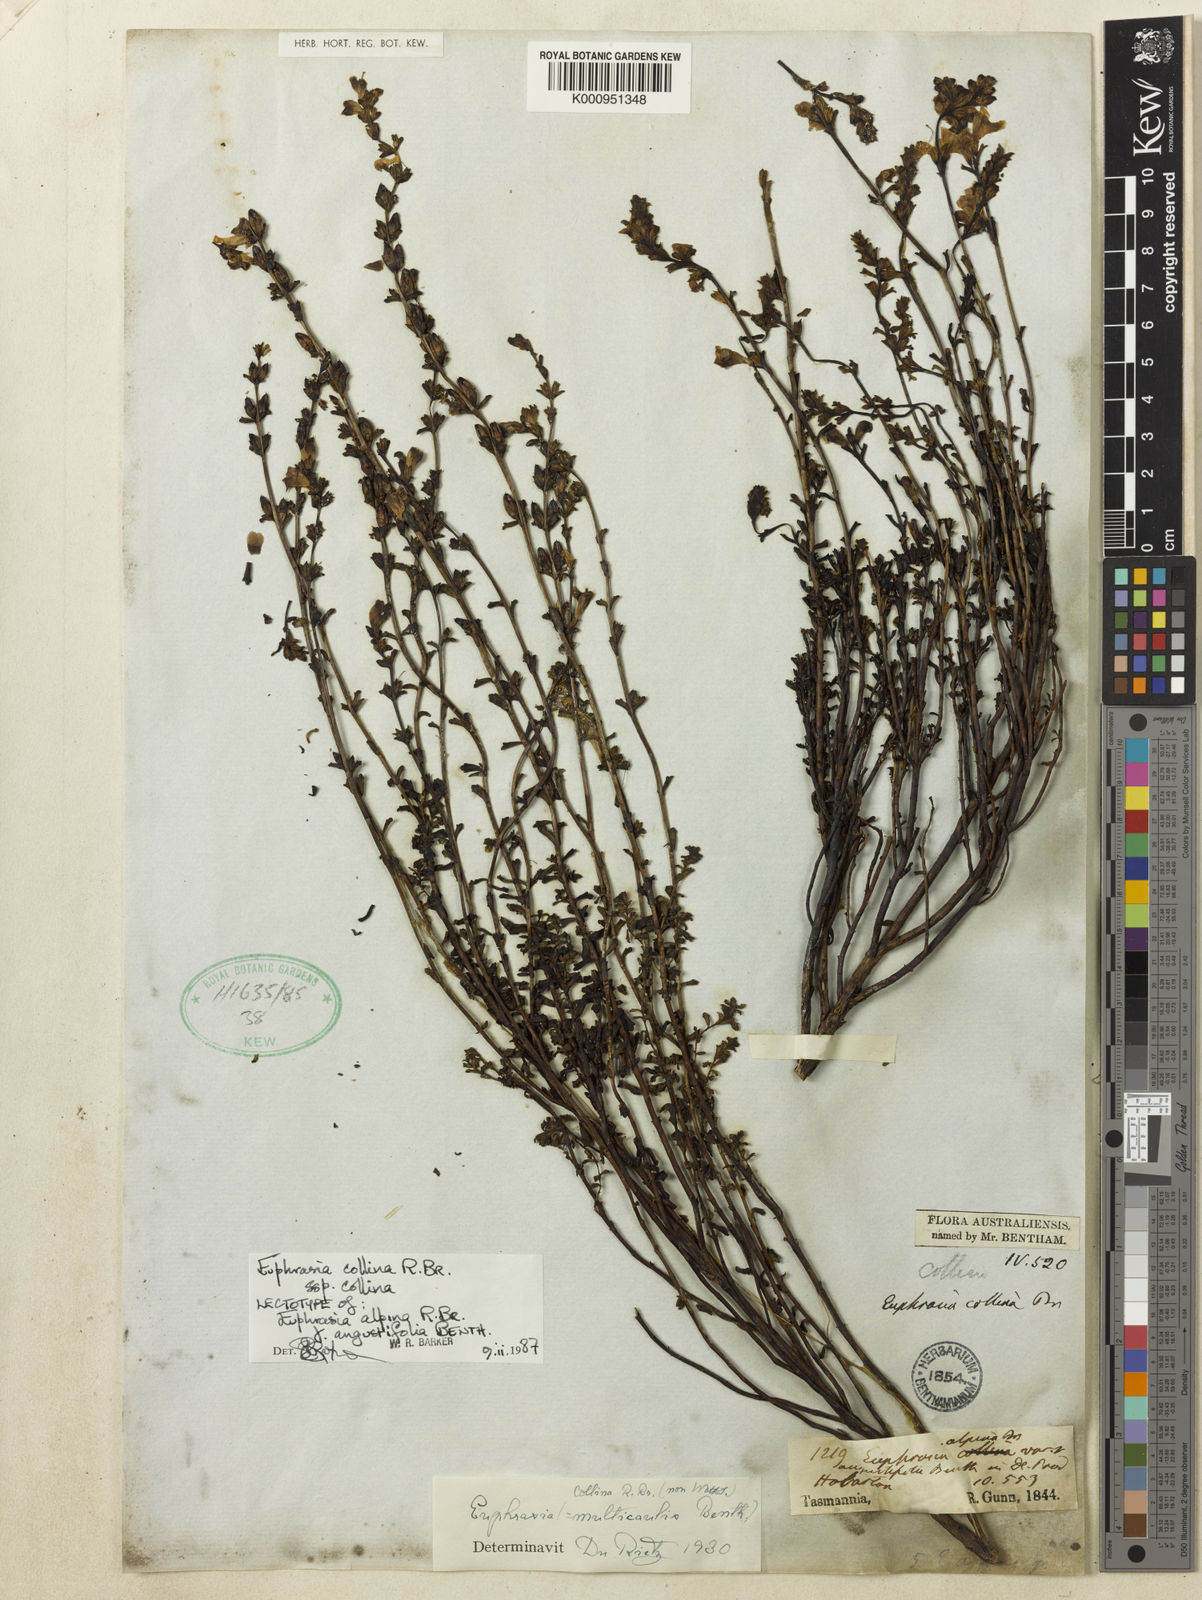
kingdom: Plantae
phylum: Tracheophyta
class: Magnoliopsida
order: Lamiales
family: Orobanchaceae
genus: Euphrasia
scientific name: Euphrasia collina
